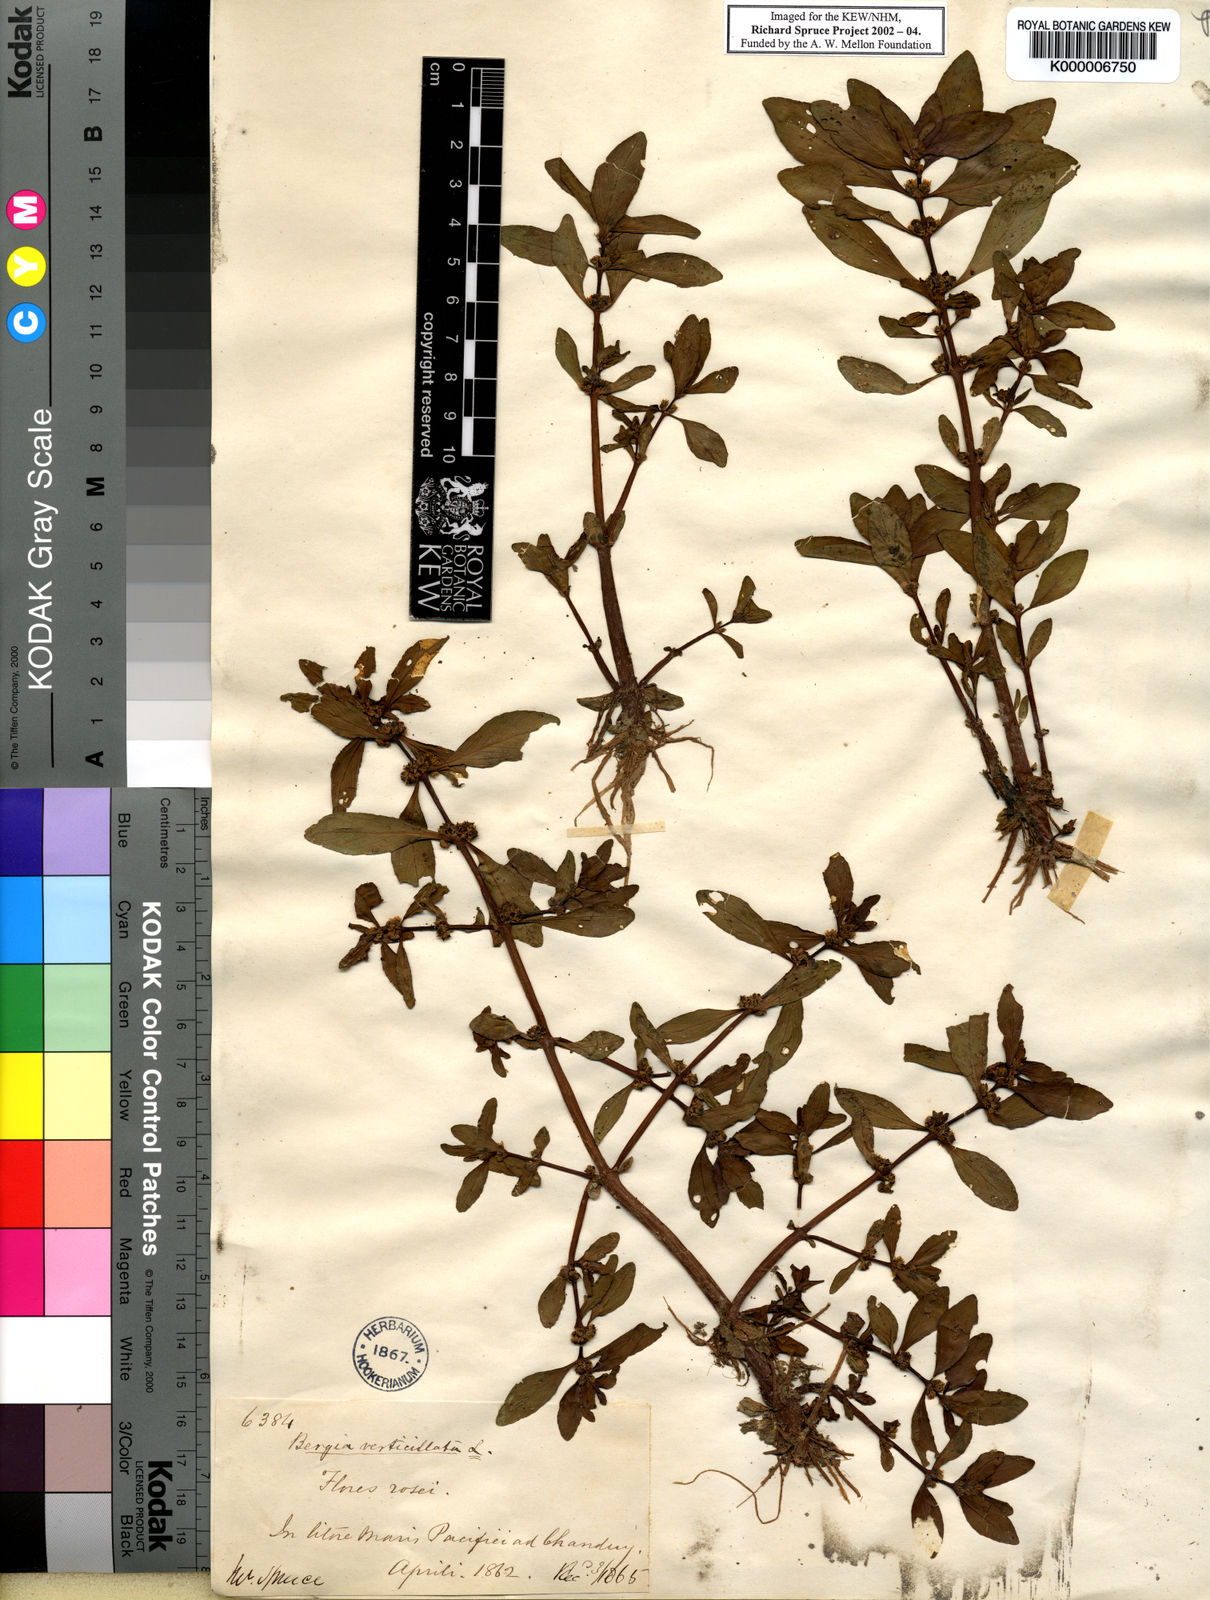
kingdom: Plantae
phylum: Tracheophyta
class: Magnoliopsida
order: Malpighiales
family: Elatinaceae
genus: Bergia
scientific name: Bergia capensis
